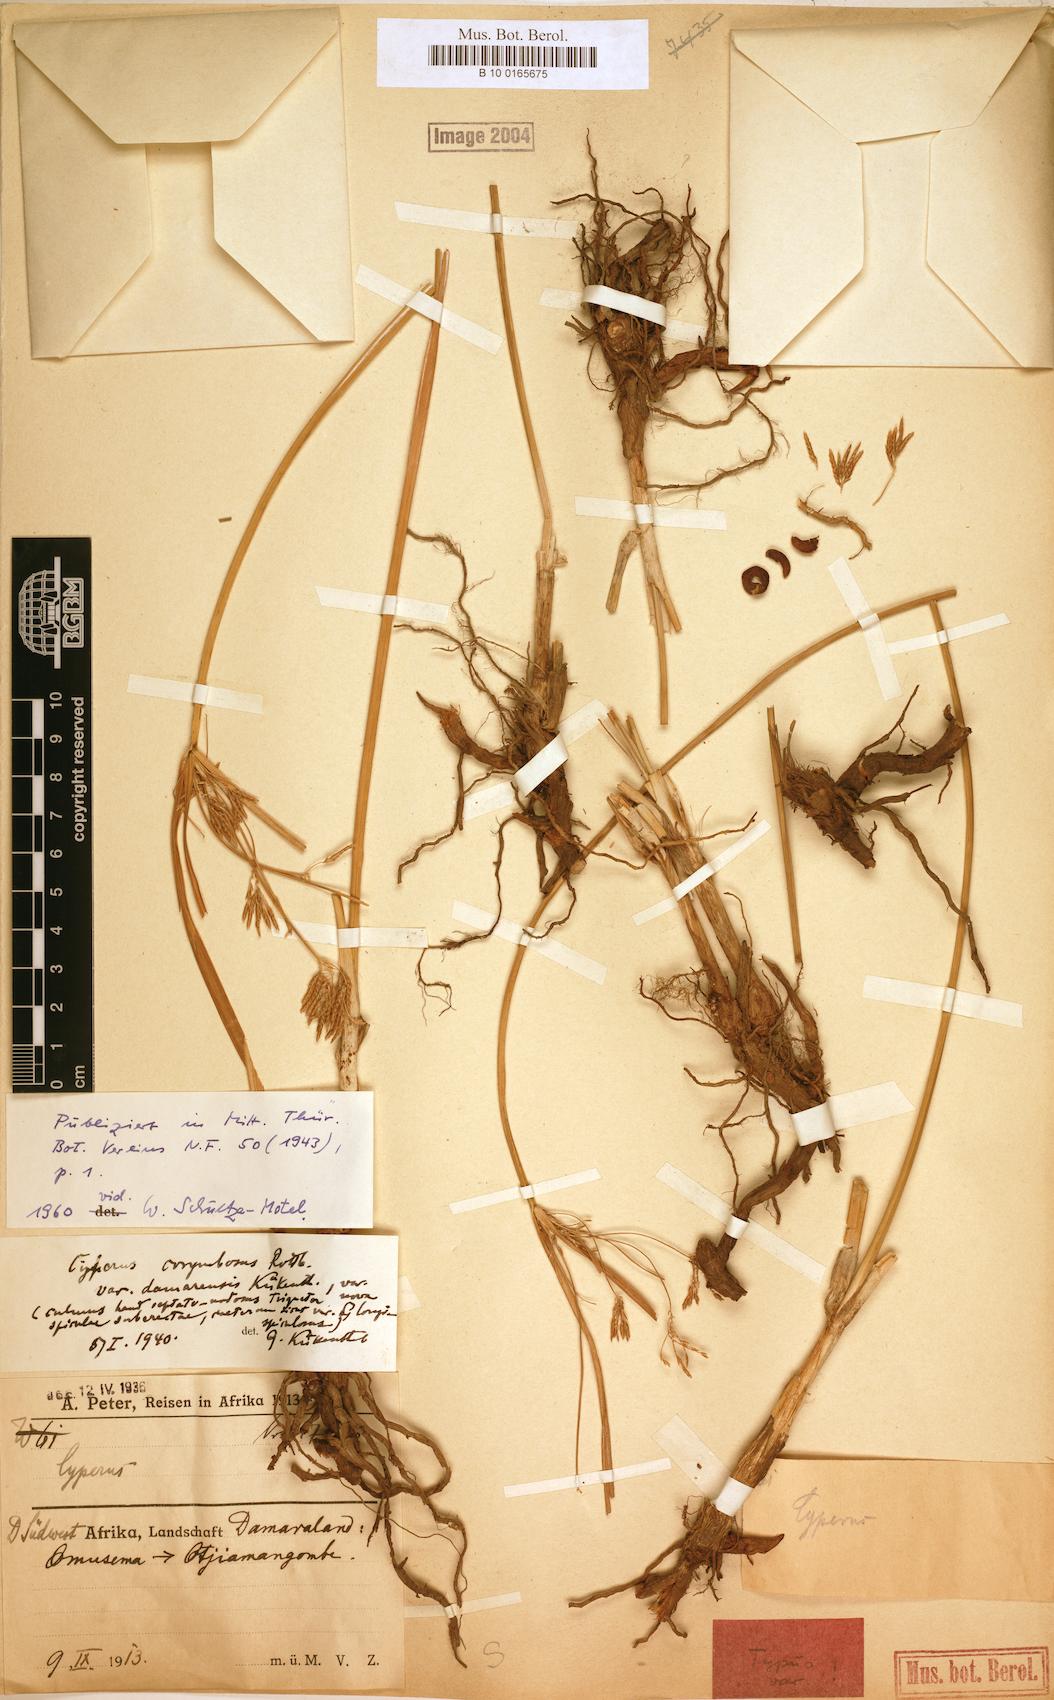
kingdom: Plantae
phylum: Tracheophyta
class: Liliopsida
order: Poales
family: Cyperaceae
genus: Cyperus
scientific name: Cyperus corymbosus
